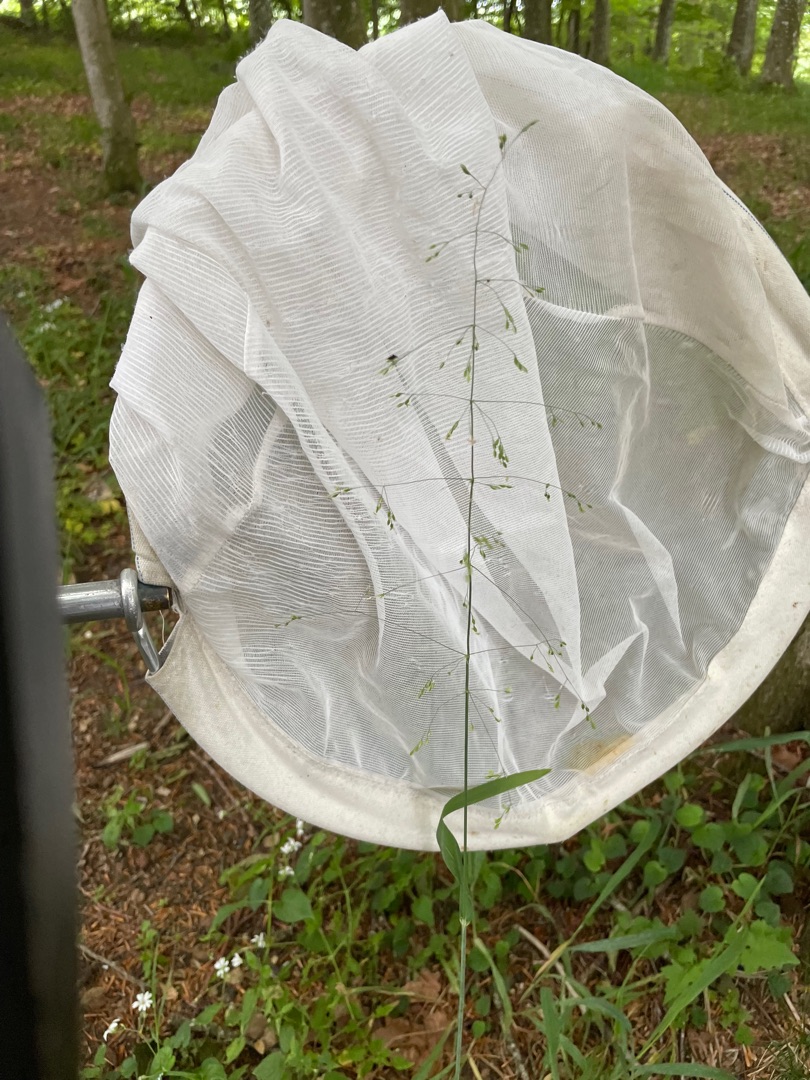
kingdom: Plantae
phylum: Tracheophyta
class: Liliopsida
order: Poales
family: Poaceae
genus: Milium
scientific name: Milium effusum
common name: Miliegræs
